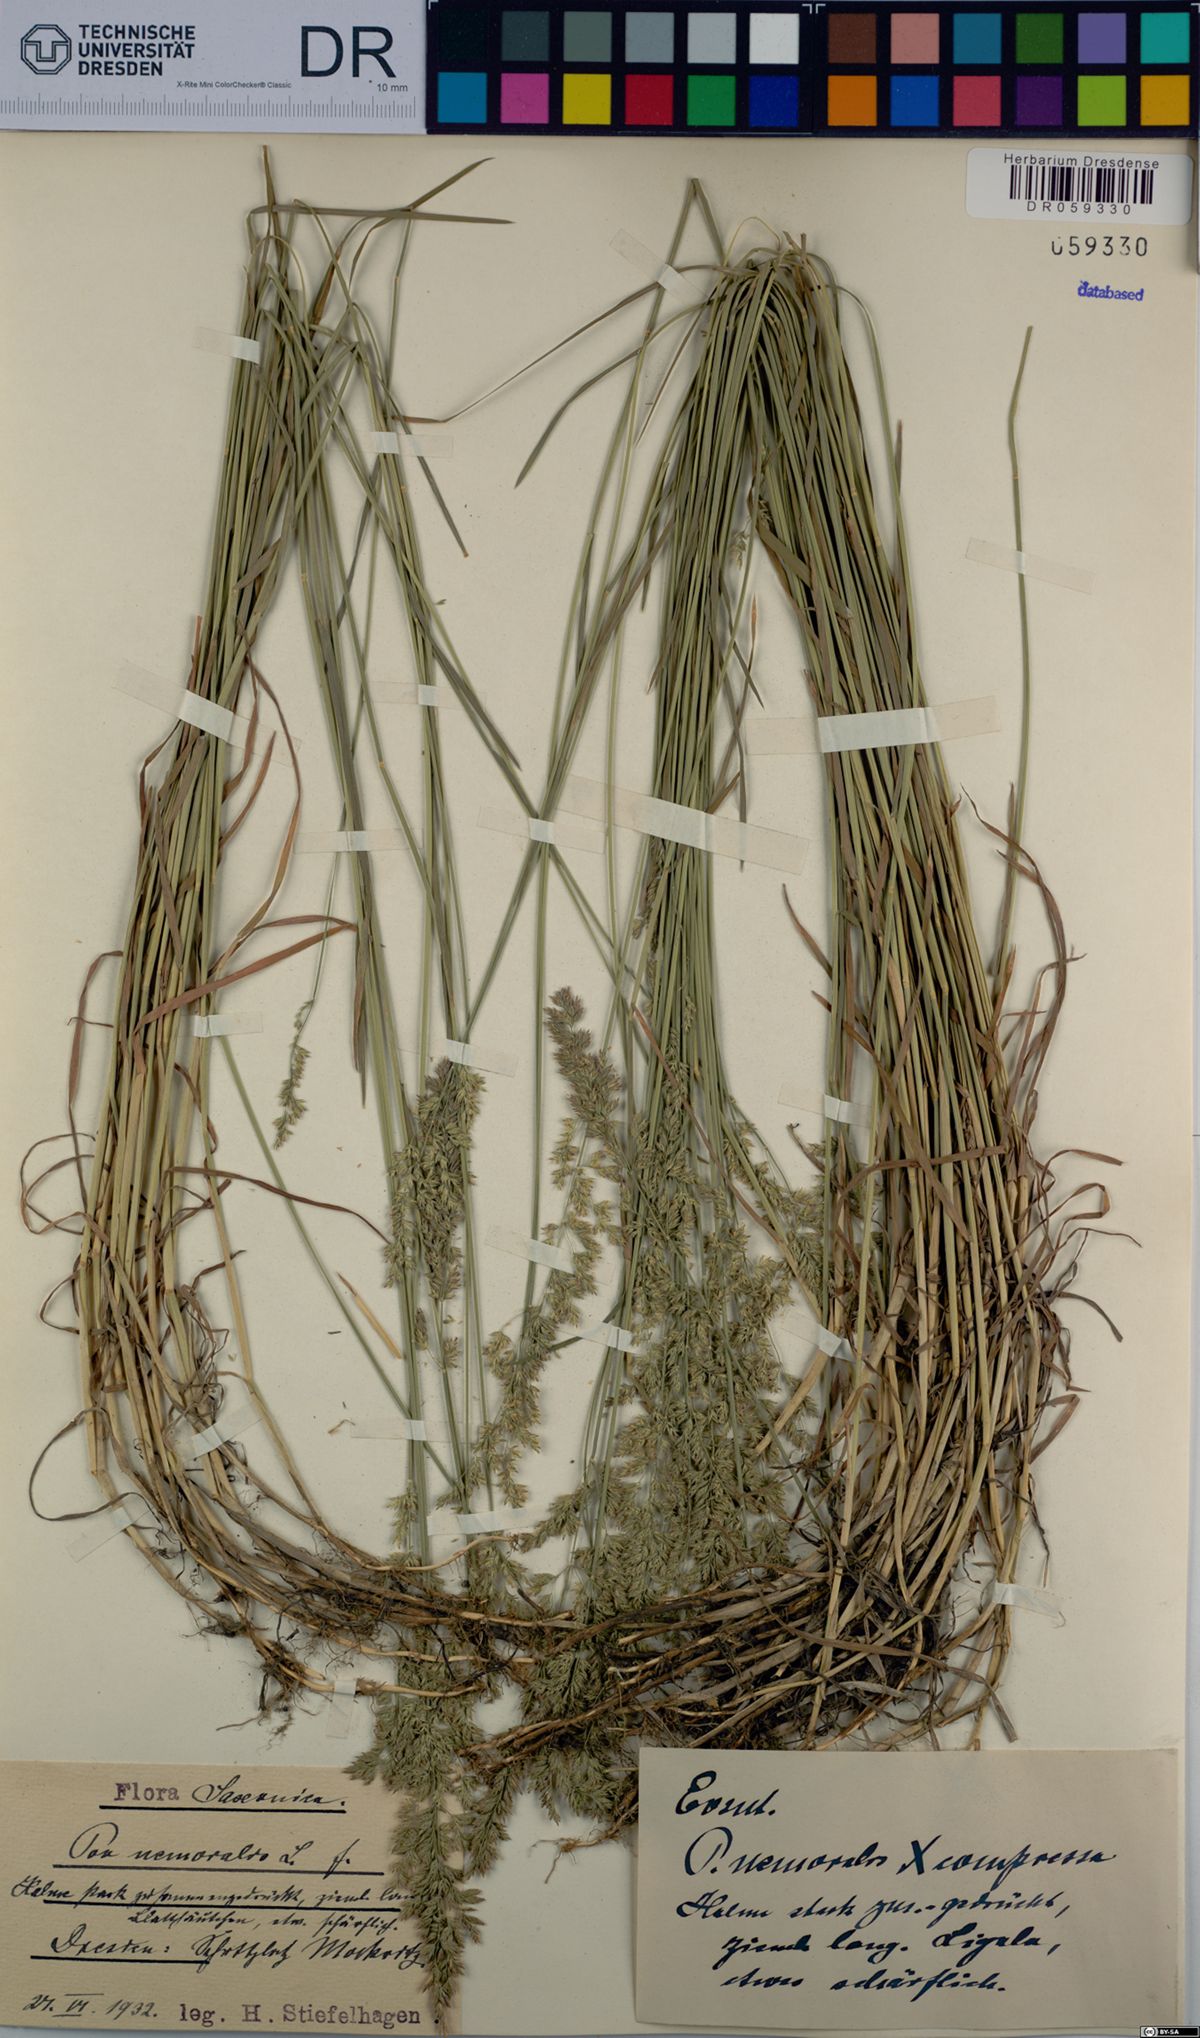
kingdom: Plantae
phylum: Tracheophyta
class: Liliopsida
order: Poales
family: Poaceae
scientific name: Poaceae
